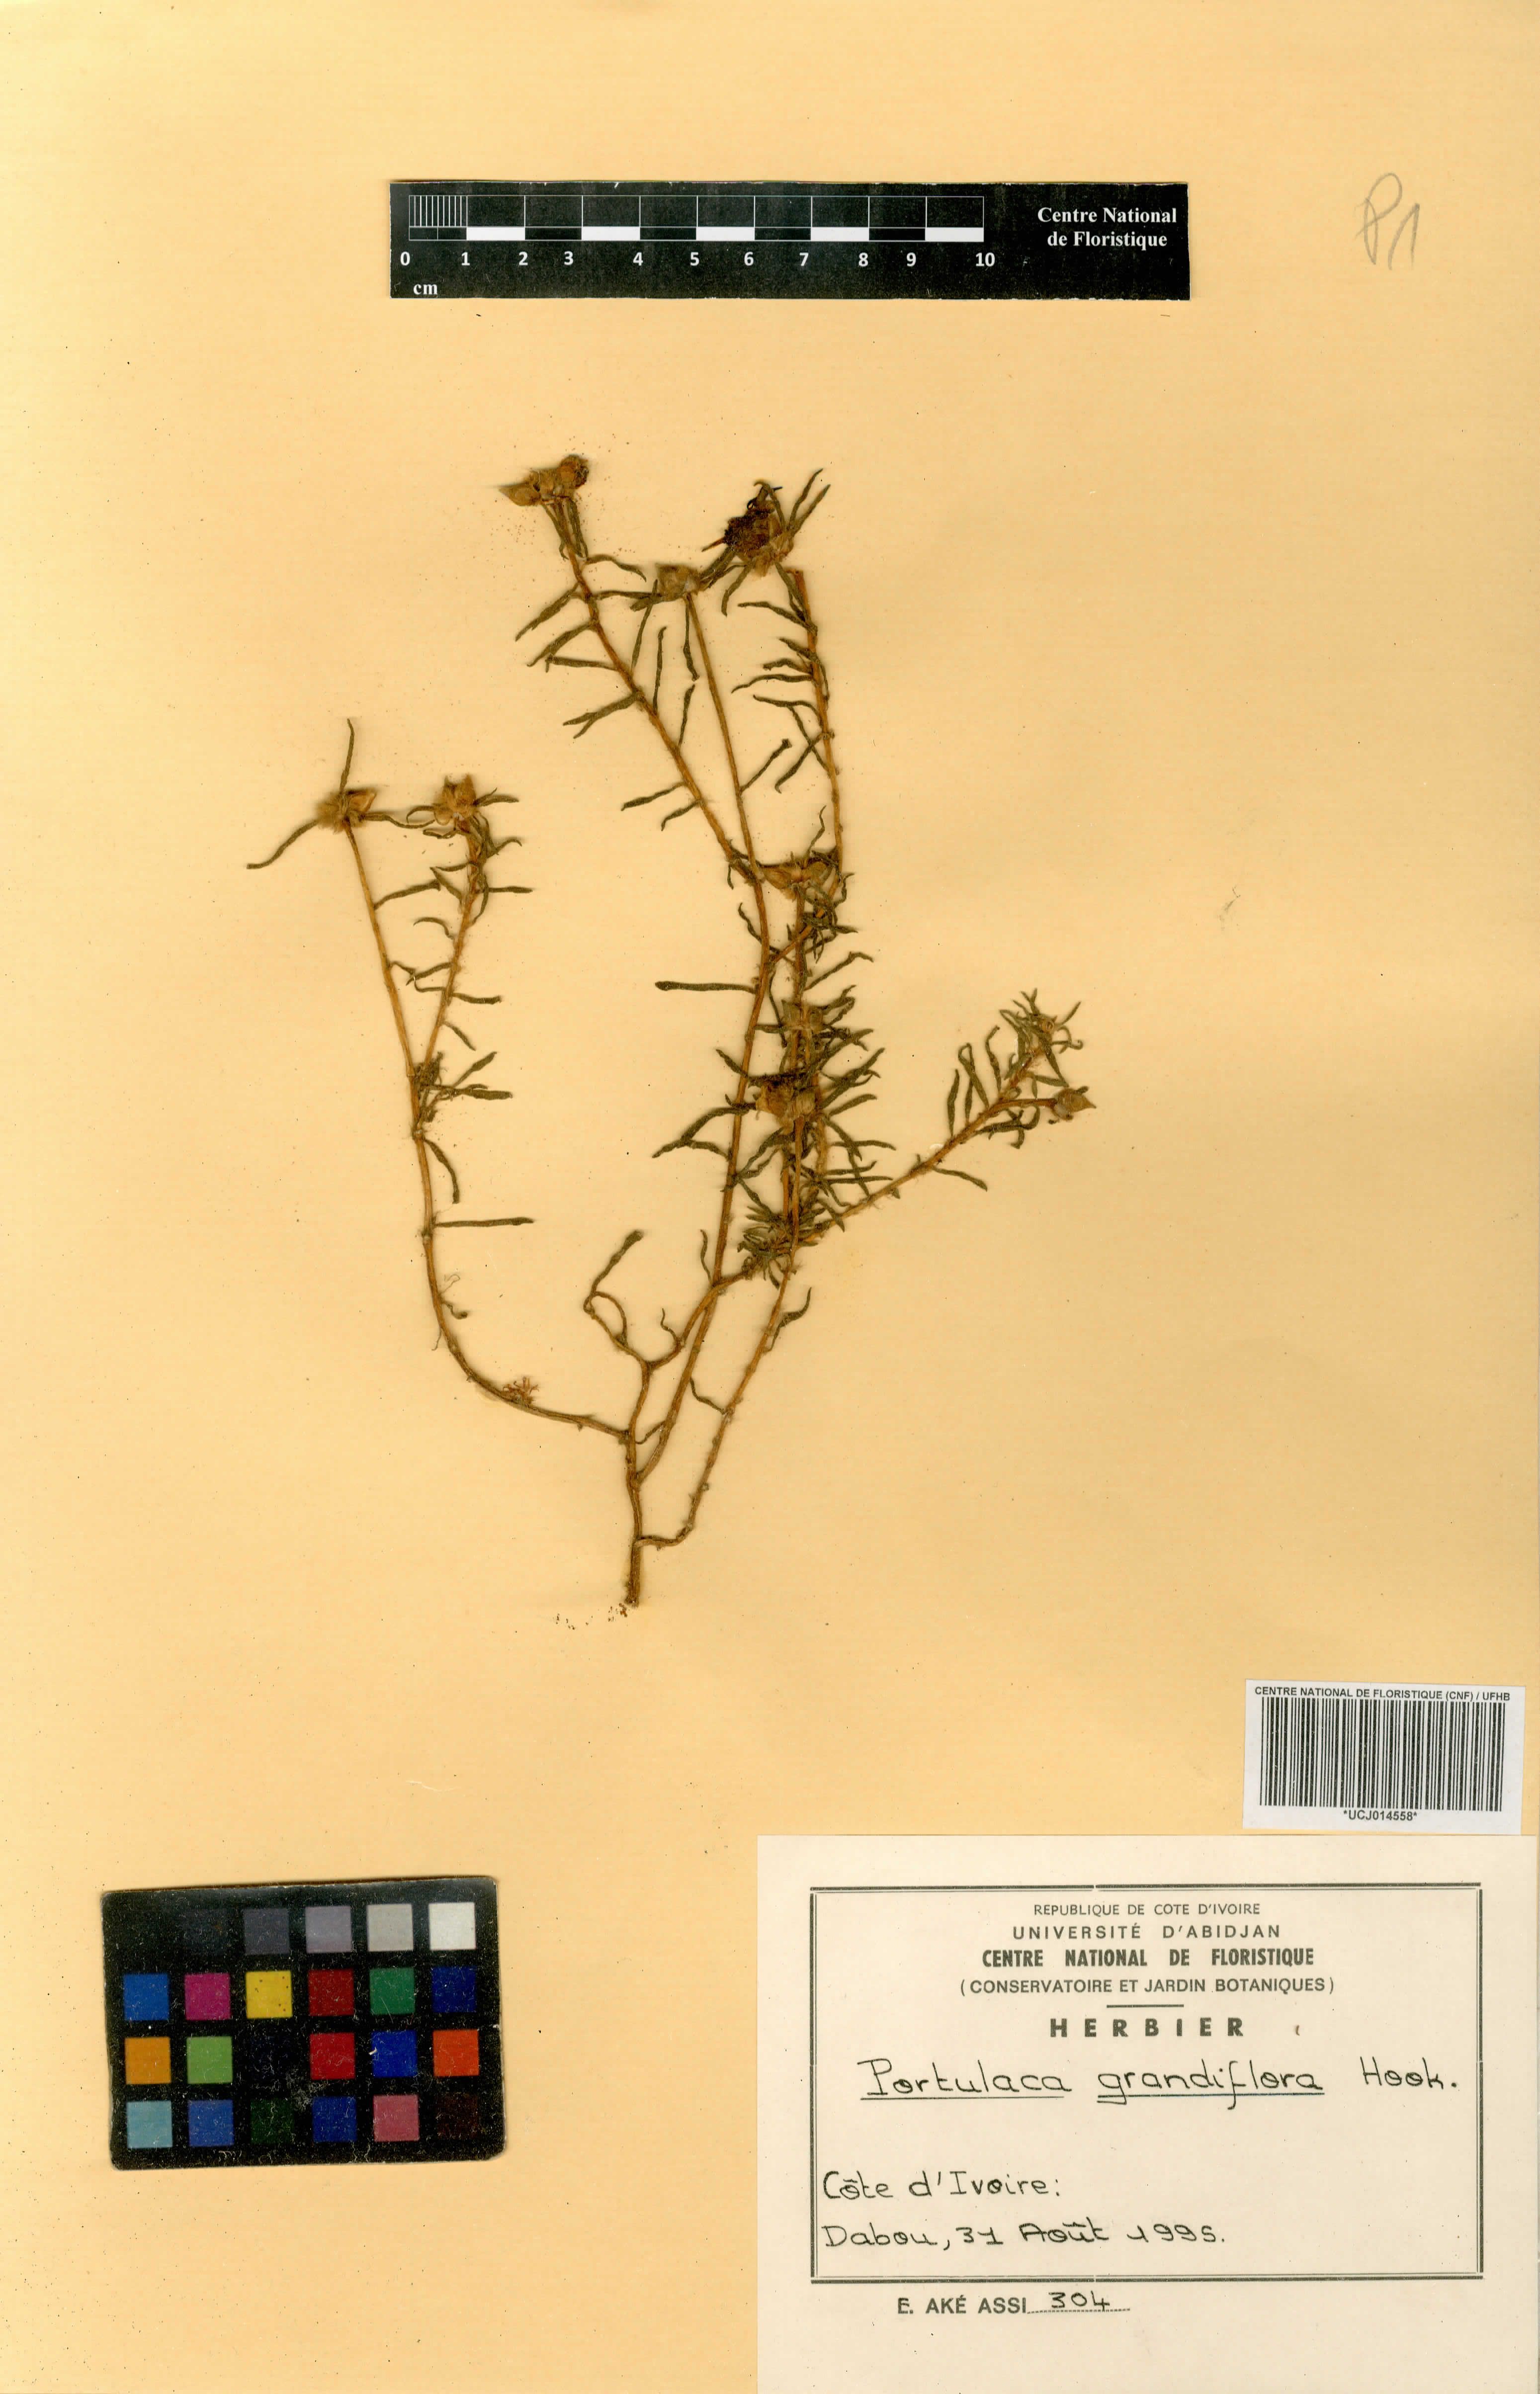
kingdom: Plantae
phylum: Tracheophyta
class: Magnoliopsida
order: Caryophyllales
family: Portulacaceae
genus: Portulaca
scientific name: Portulaca grandiflora
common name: Moss-rose
